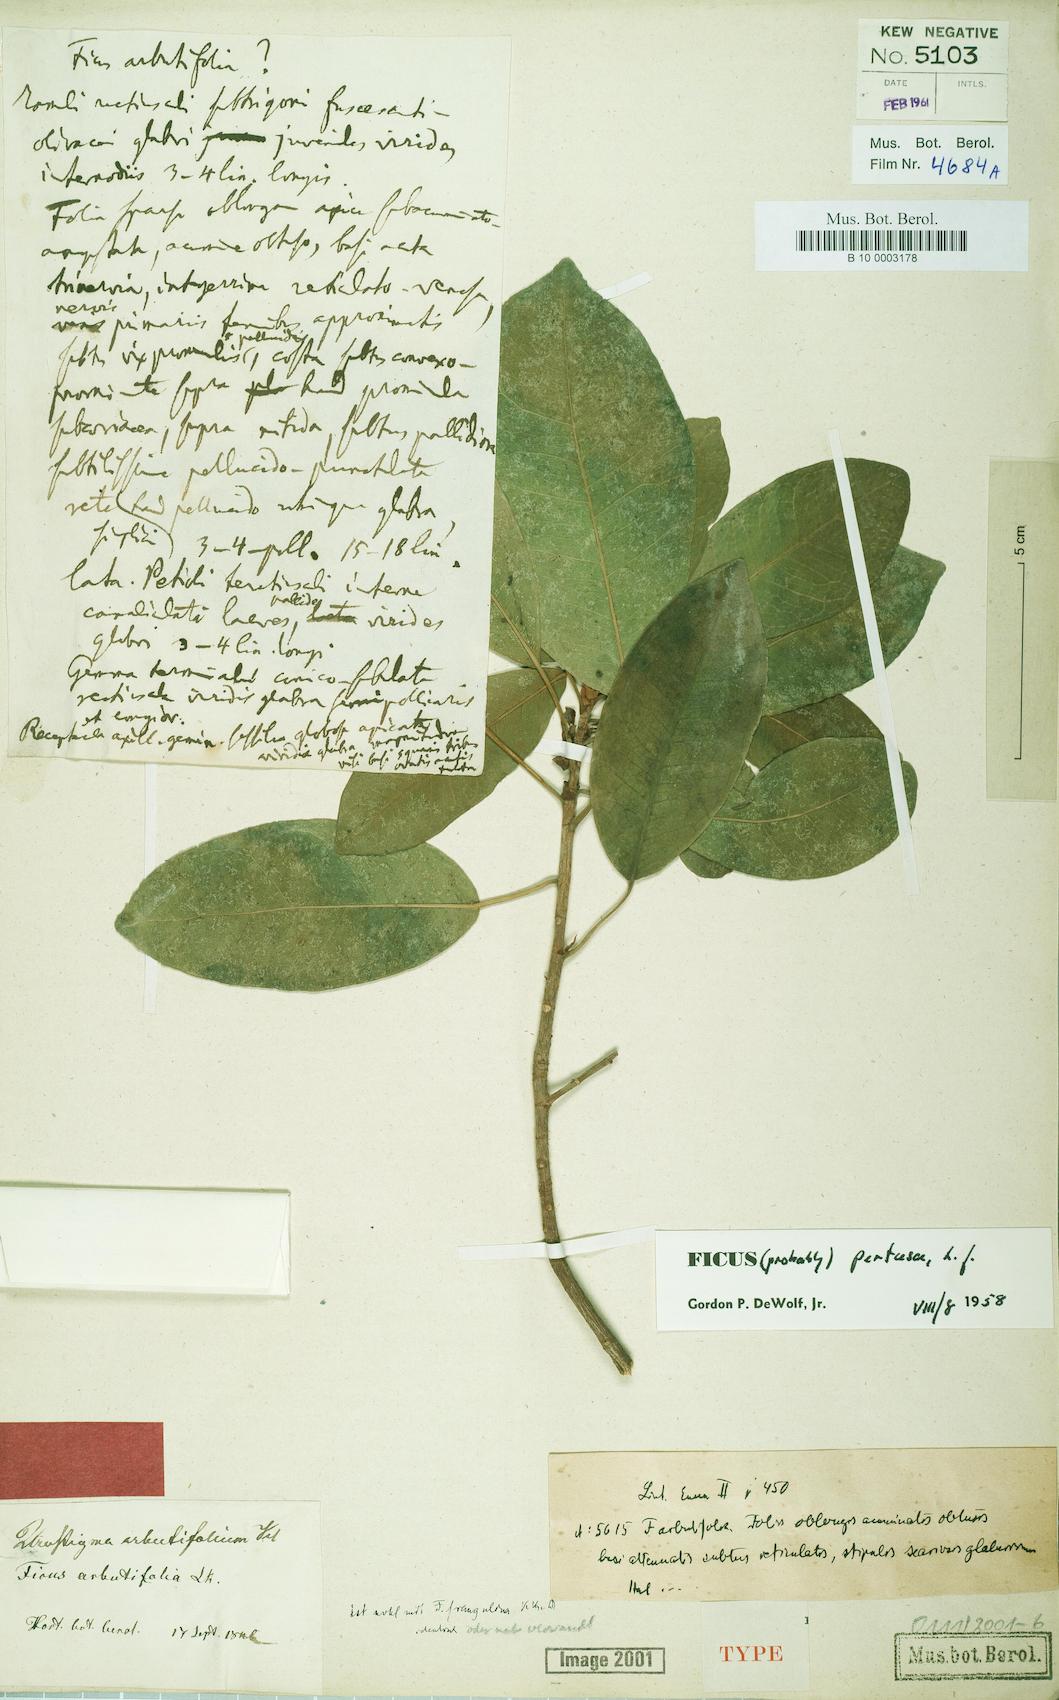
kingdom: Plantae
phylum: Tracheophyta
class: Magnoliopsida
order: Rosales
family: Moraceae
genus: Ficus
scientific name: Ficus americana
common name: Jamaican cherry fig
